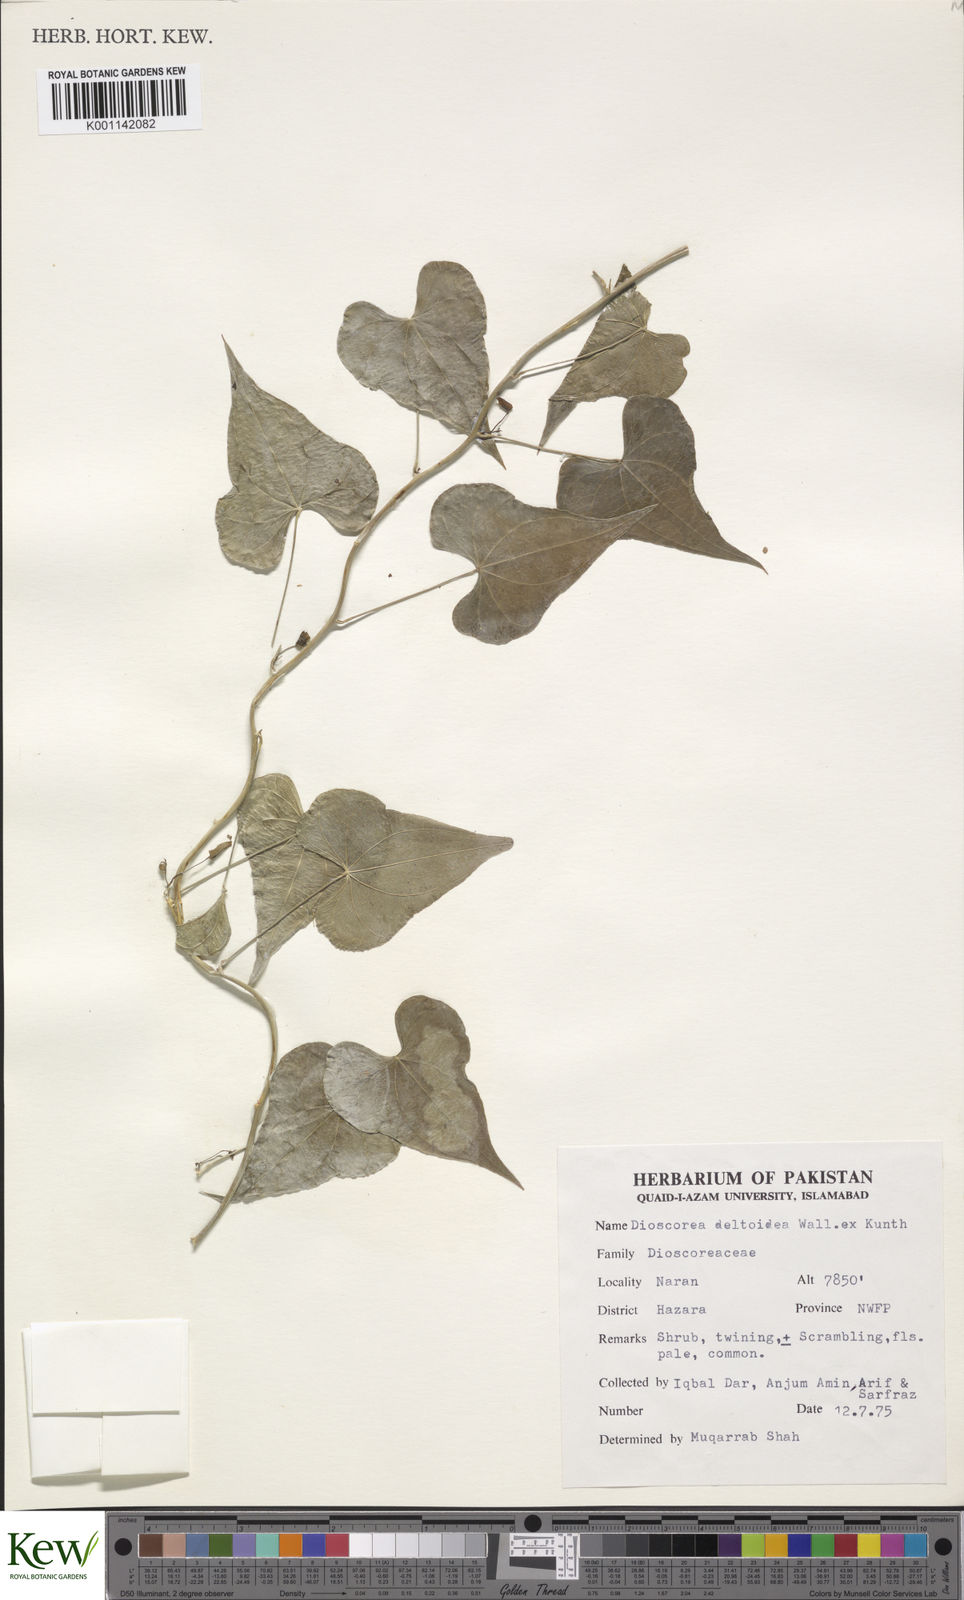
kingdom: Plantae
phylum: Tracheophyta
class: Liliopsida
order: Dioscoreales
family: Dioscoreaceae
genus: Dioscorea
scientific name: Dioscorea deltoidea
